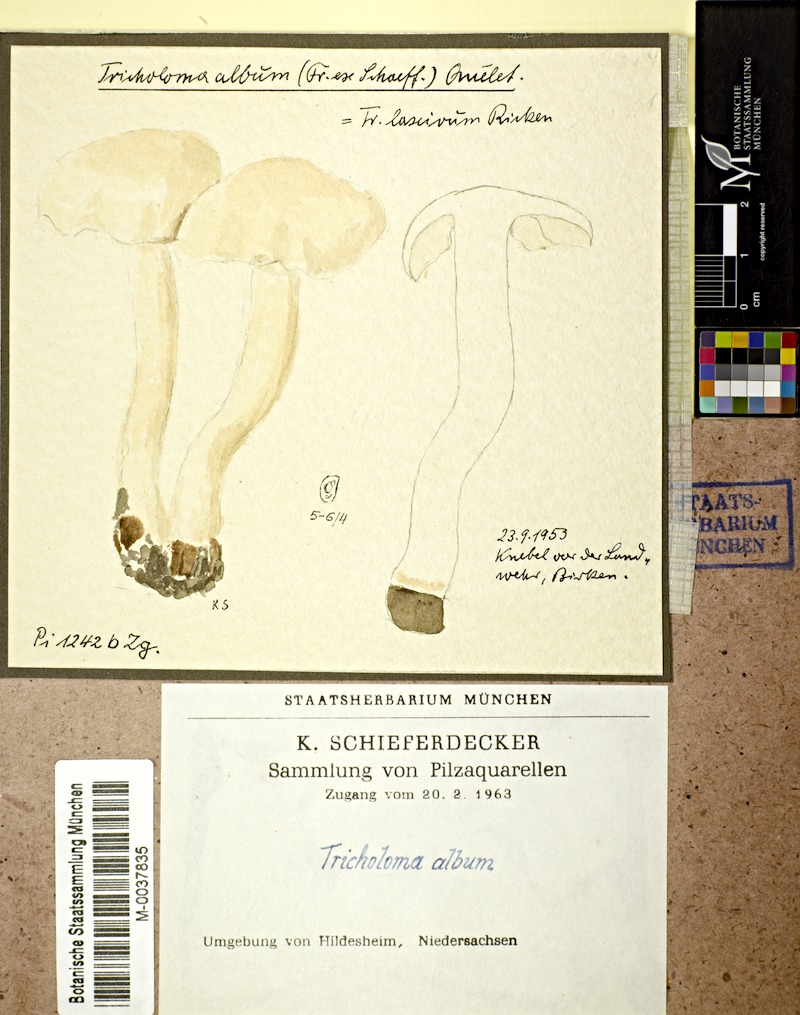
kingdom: Fungi
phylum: Basidiomycota
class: Agaricomycetes
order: Agaricales
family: Tricholomataceae
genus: Tricholoma
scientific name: Tricholoma album
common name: White knight
